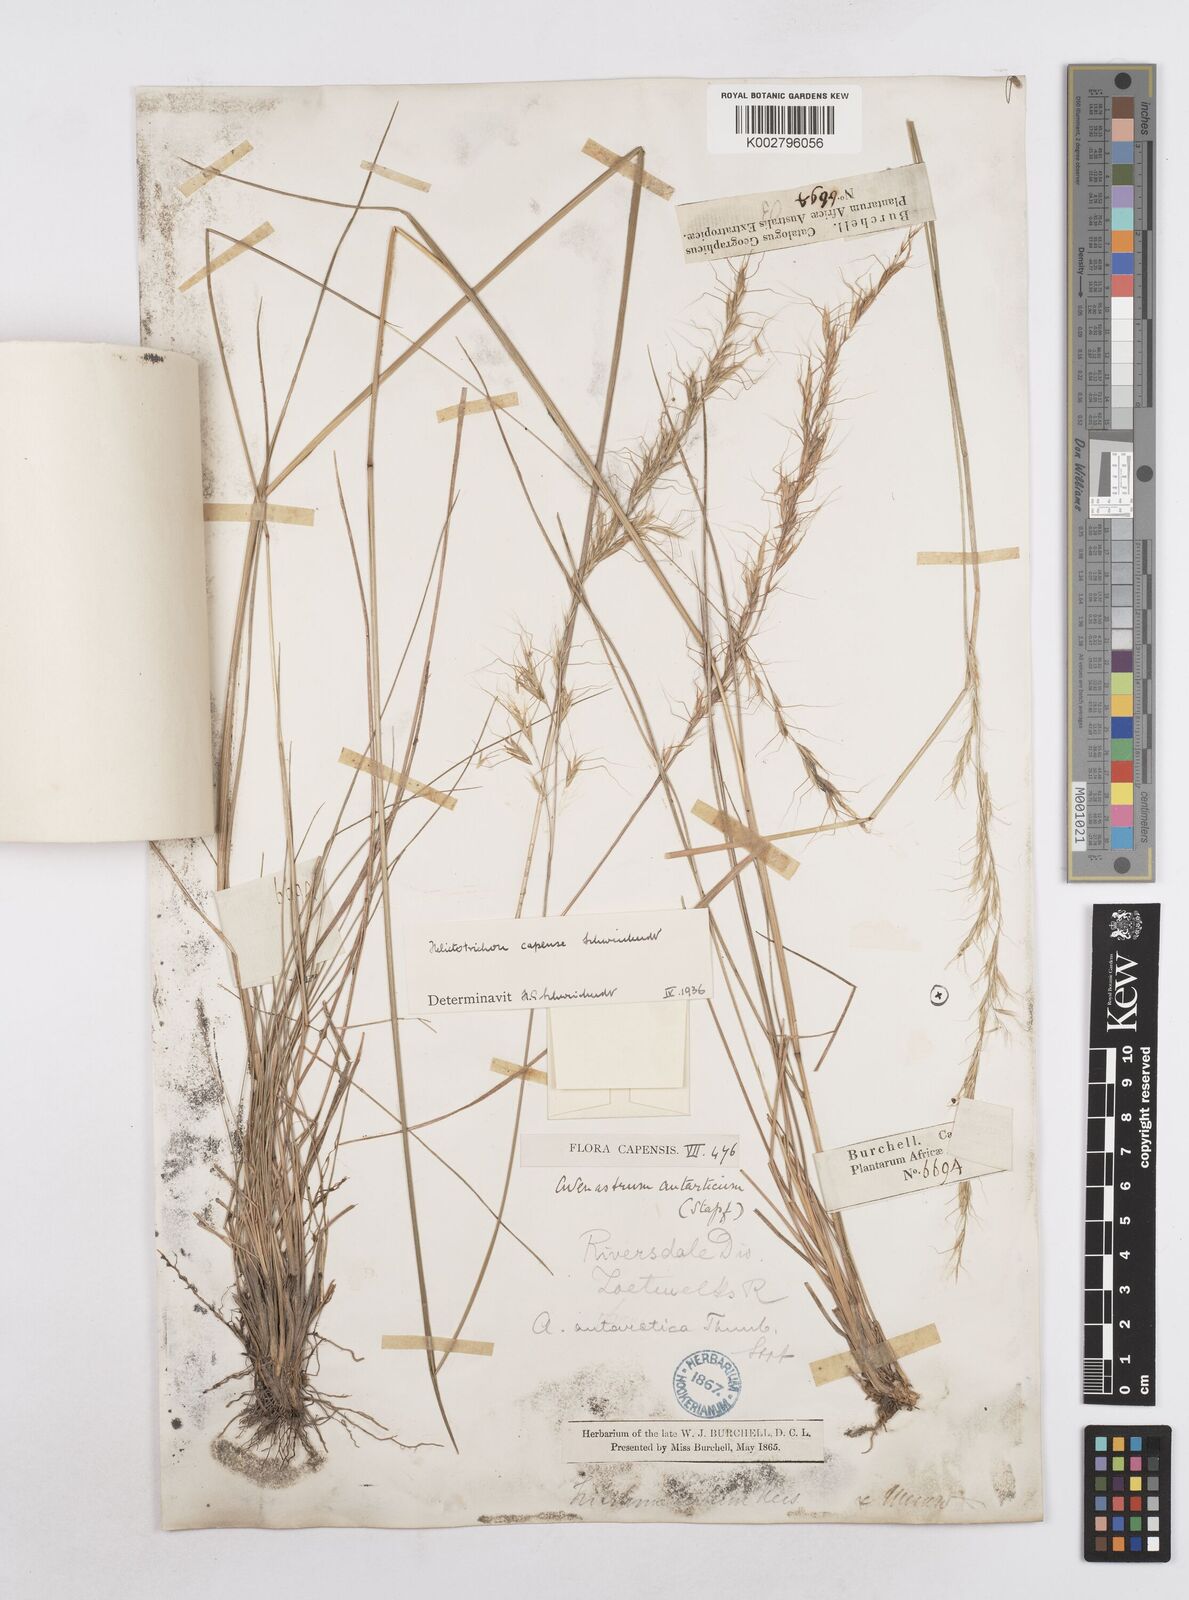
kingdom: Plantae
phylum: Tracheophyta
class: Liliopsida
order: Poales
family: Poaceae
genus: Trisetopsis
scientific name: Trisetopsis capensis
